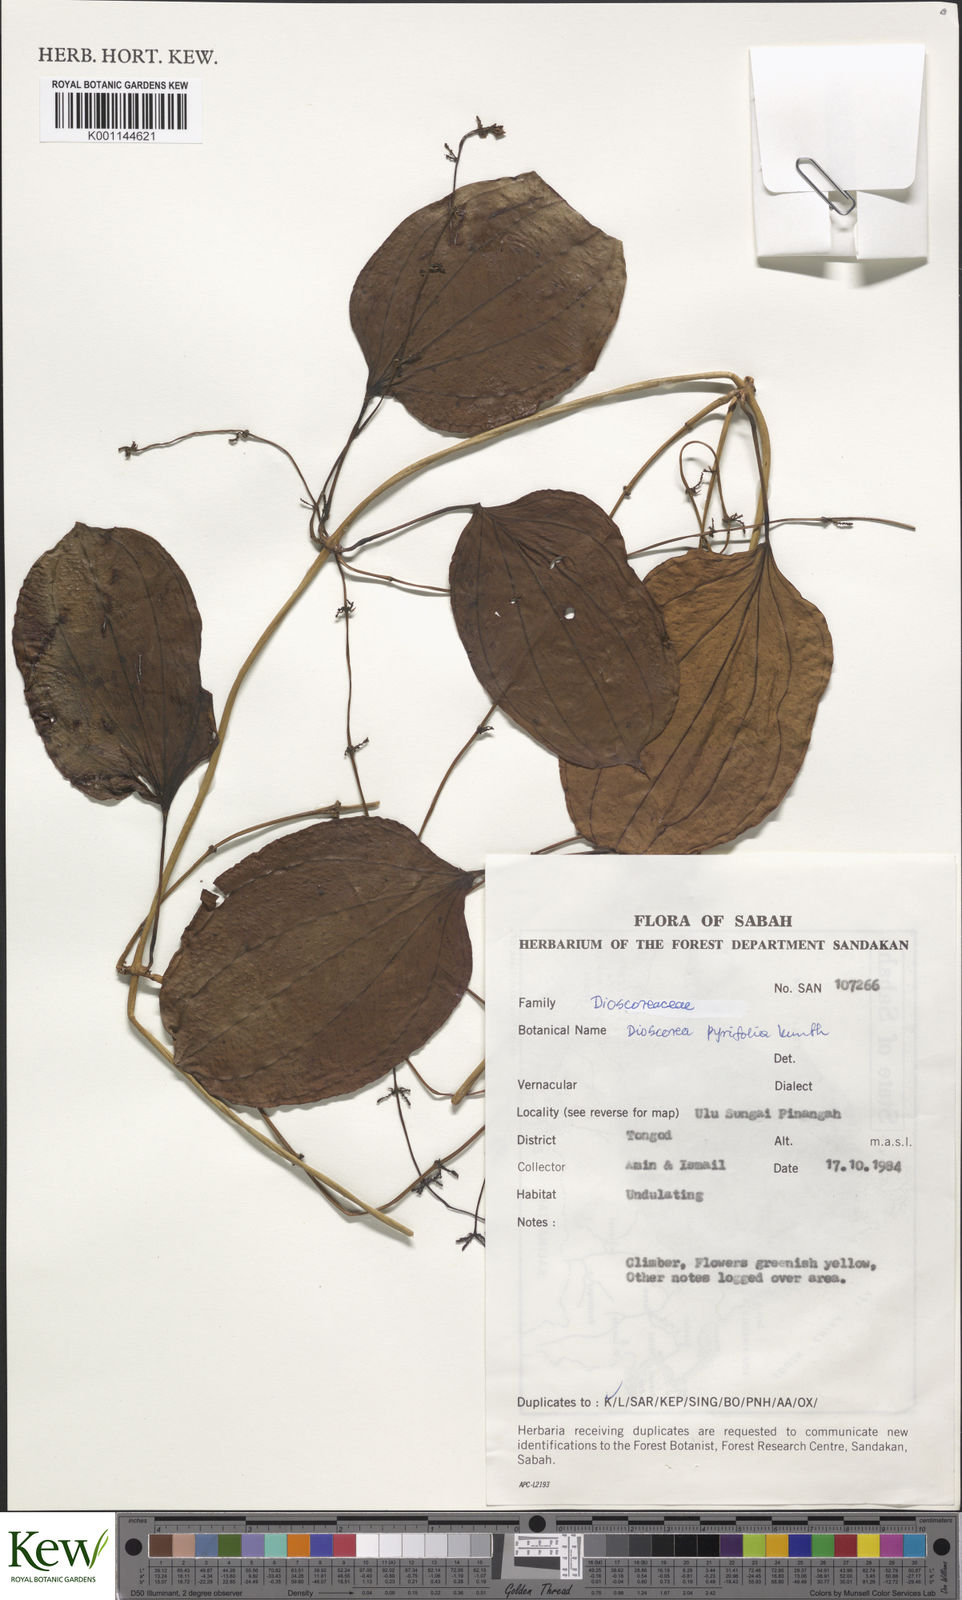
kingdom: Plantae
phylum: Tracheophyta
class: Liliopsida
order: Dioscoreales
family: Dioscoreaceae
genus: Dioscorea
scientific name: Dioscorea pyrifolia
